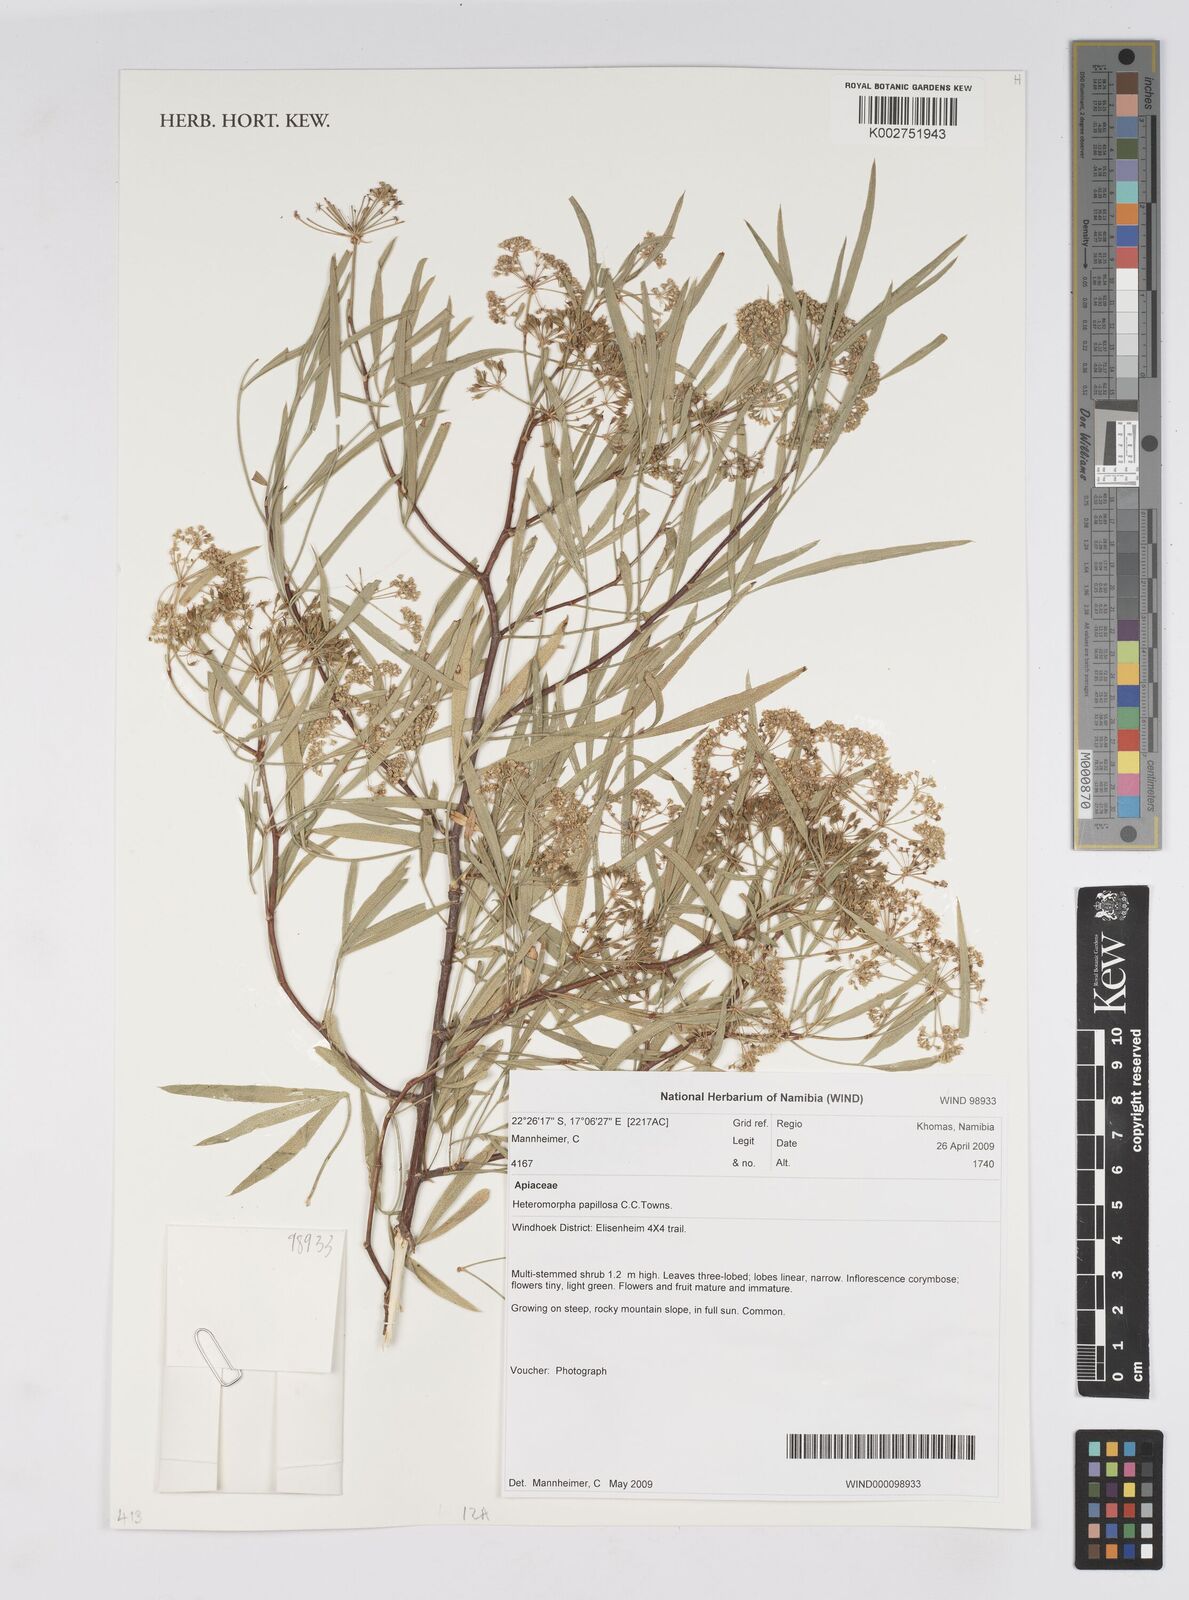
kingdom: Plantae
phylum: Tracheophyta
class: Magnoliopsida
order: Apiales
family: Apiaceae
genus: Heteromorpha
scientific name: Heteromorpha papillosa
